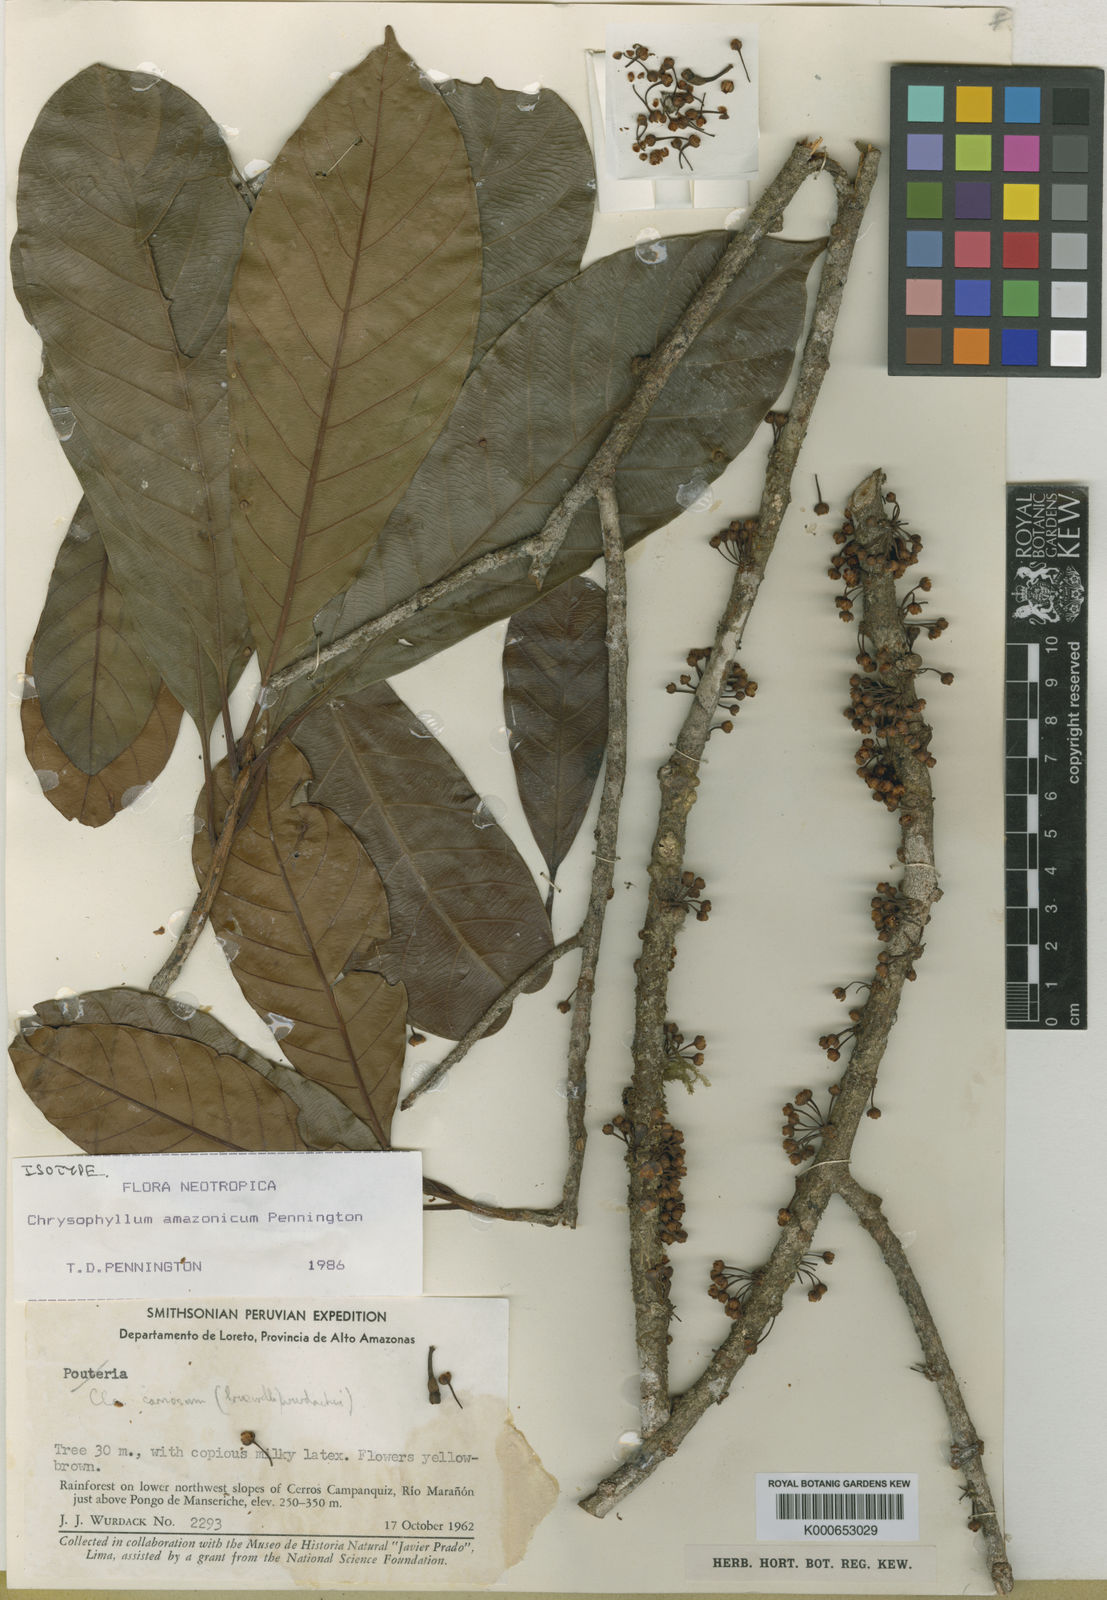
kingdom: Plantae
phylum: Tracheophyta
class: Magnoliopsida
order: Ericales
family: Sapotaceae
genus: Chrysophyllum
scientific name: Chrysophyllum amazonicum
